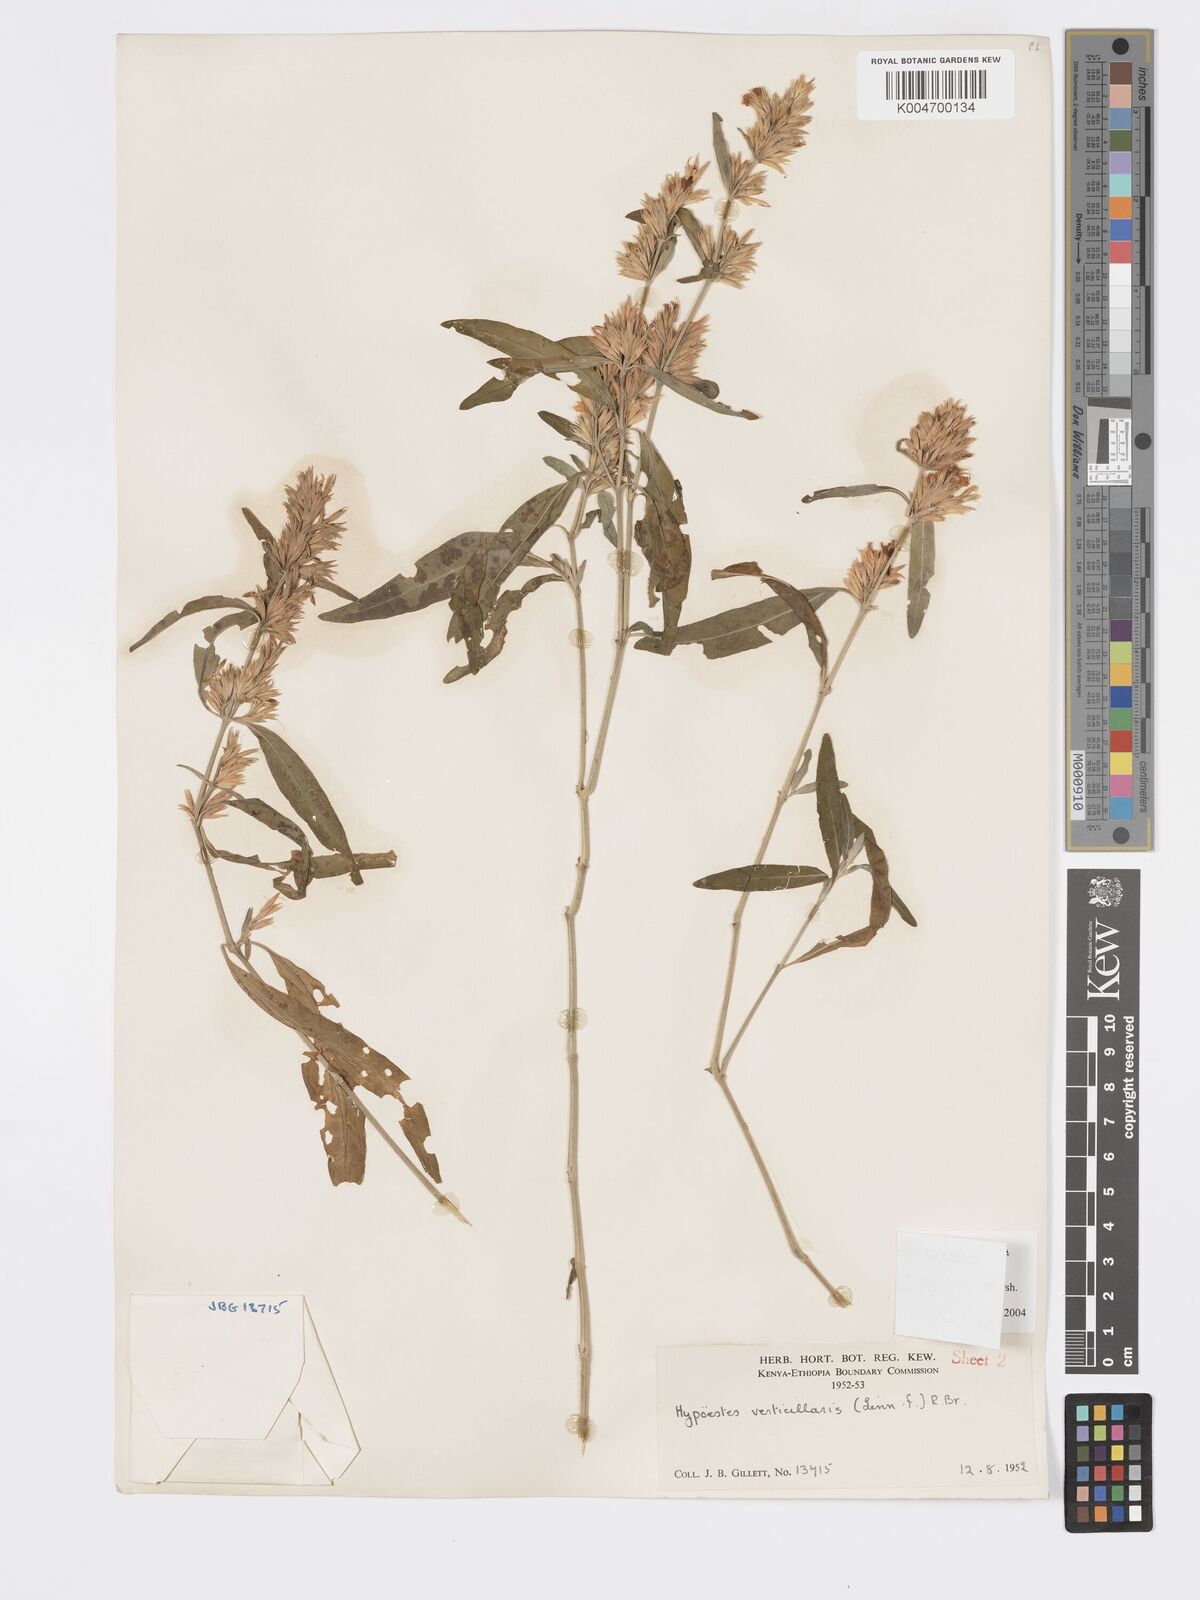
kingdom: Plantae
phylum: Tracheophyta
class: Magnoliopsida
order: Lamiales
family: Acanthaceae
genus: Hypoestes
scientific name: Hypoestes forskaolii
